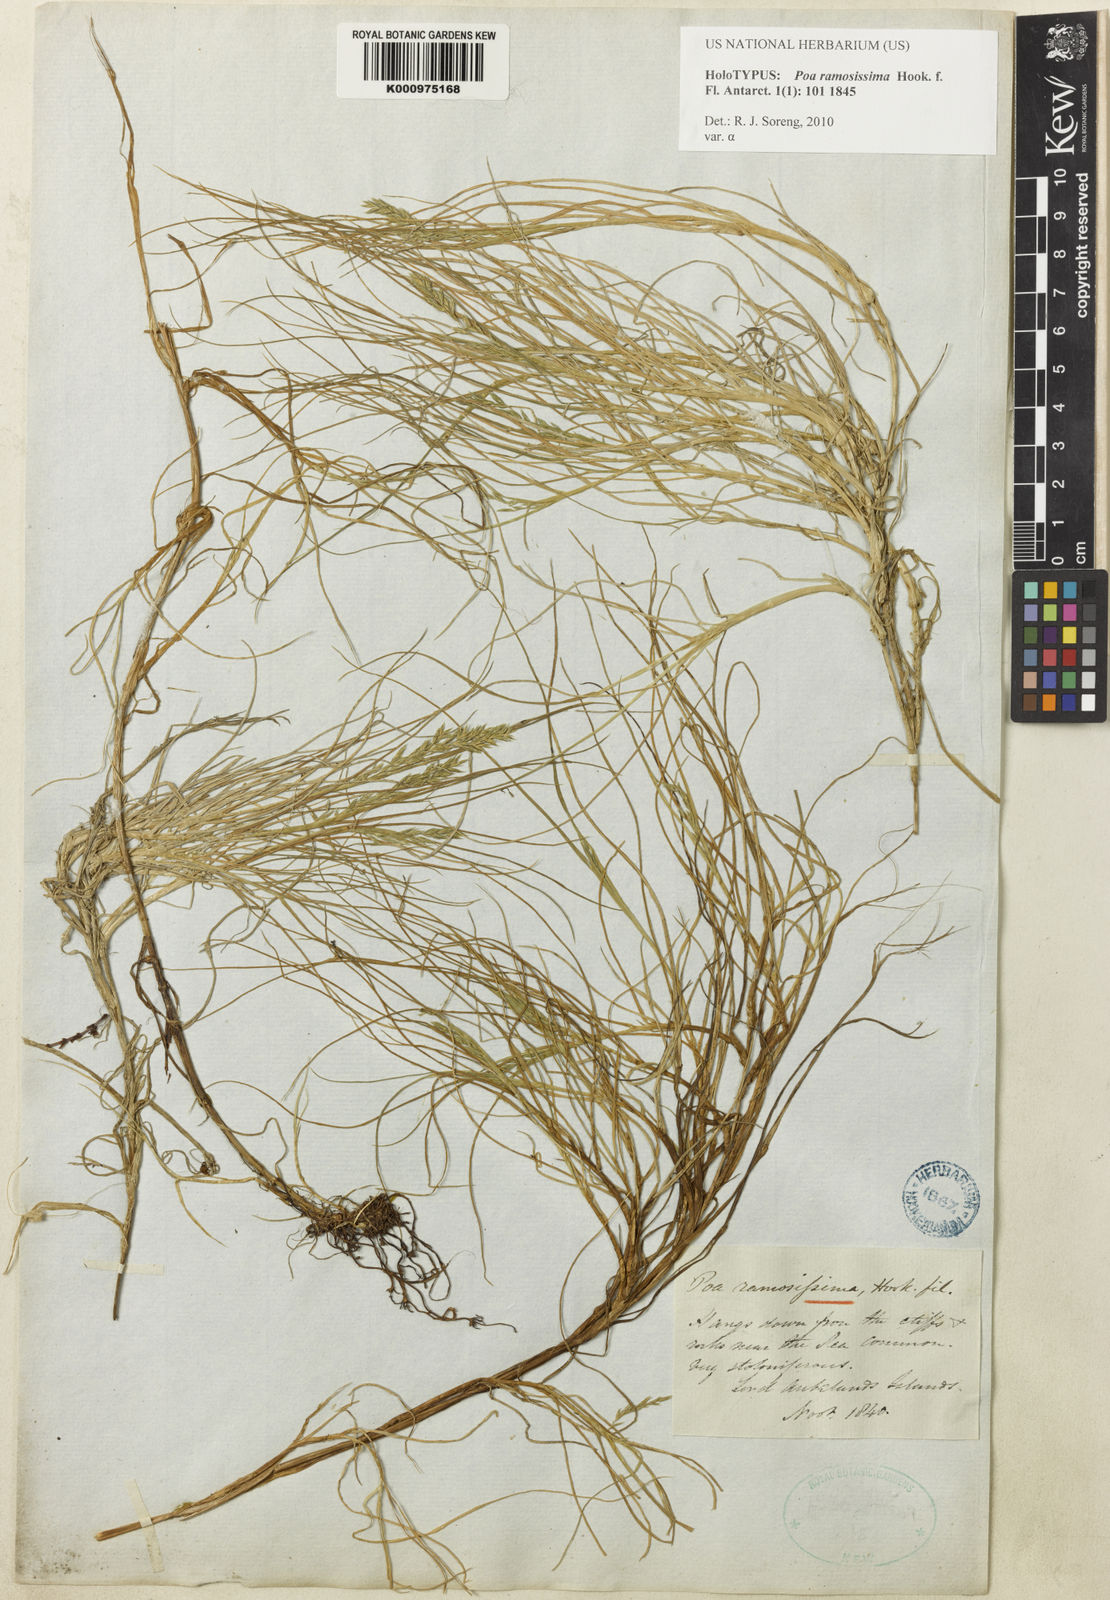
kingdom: Plantae
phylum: Tracheophyta
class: Liliopsida
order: Poales
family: Poaceae
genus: Poa
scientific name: Poa ramosissima
